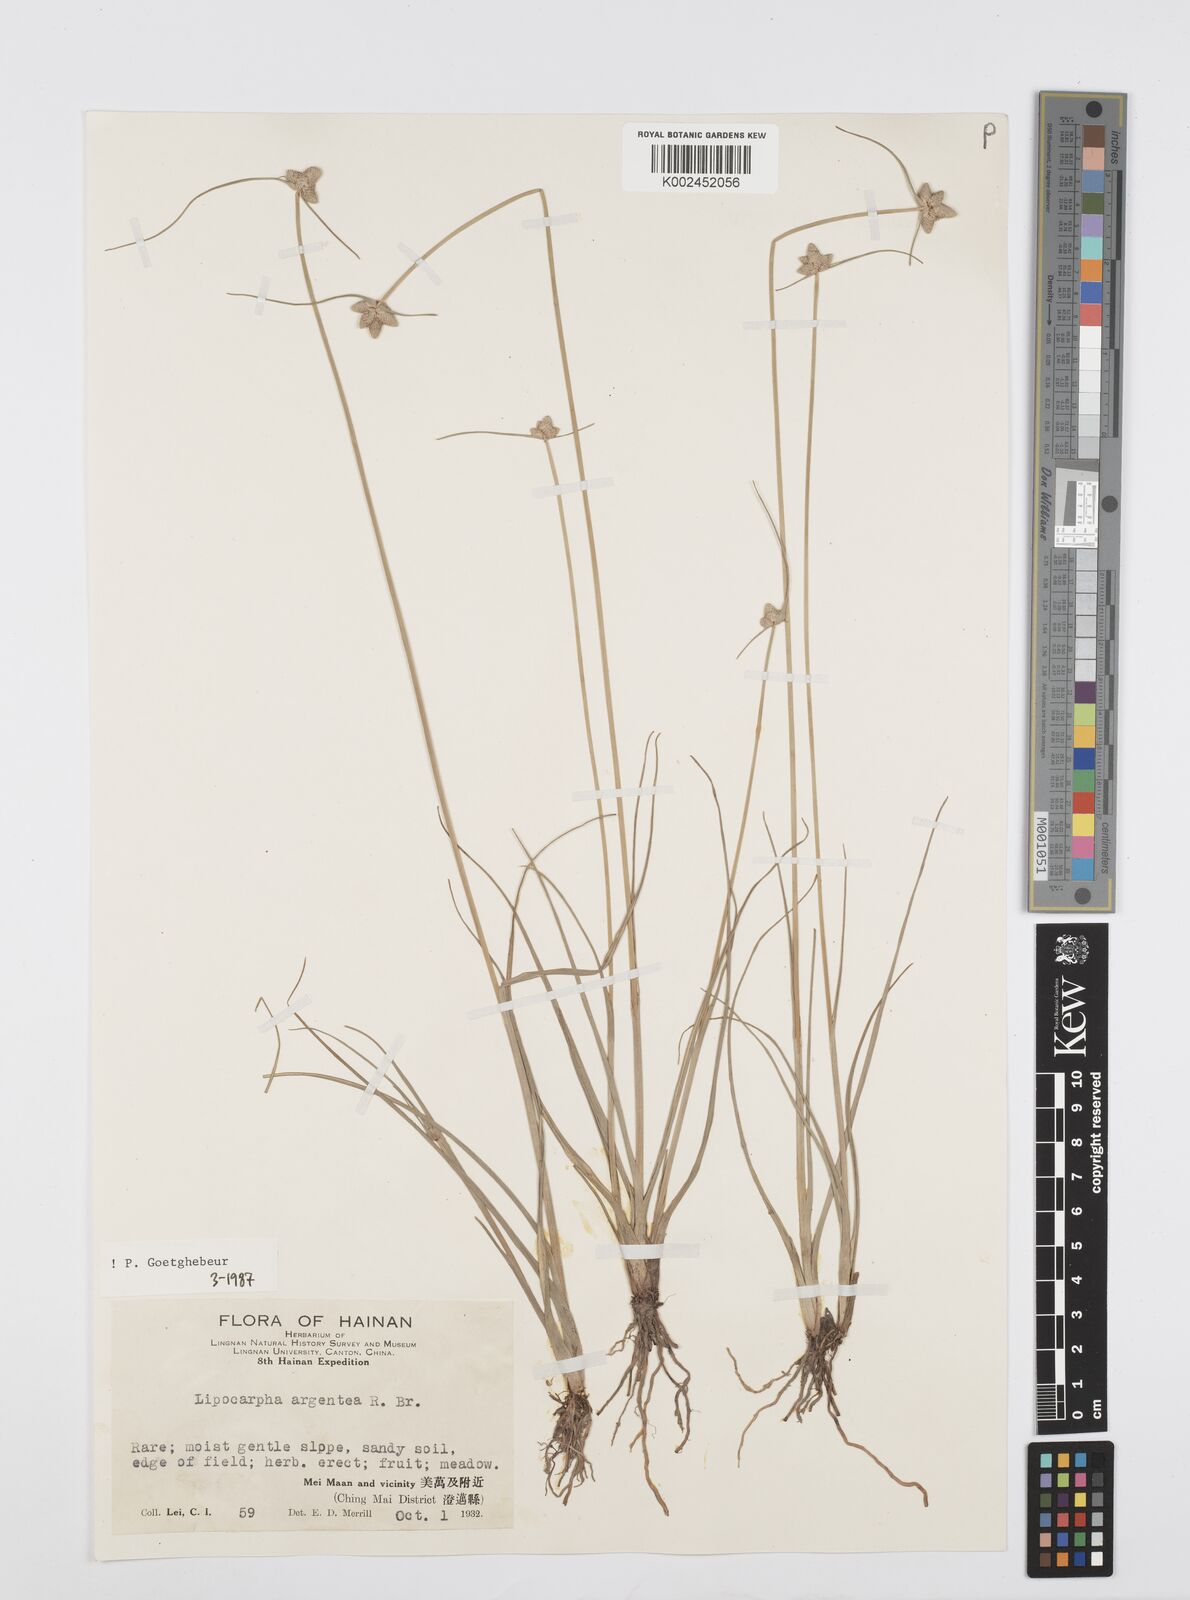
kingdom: Plantae
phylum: Tracheophyta
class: Liliopsida
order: Poales
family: Cyperaceae
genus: Cyperus
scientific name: Cyperus albescens
